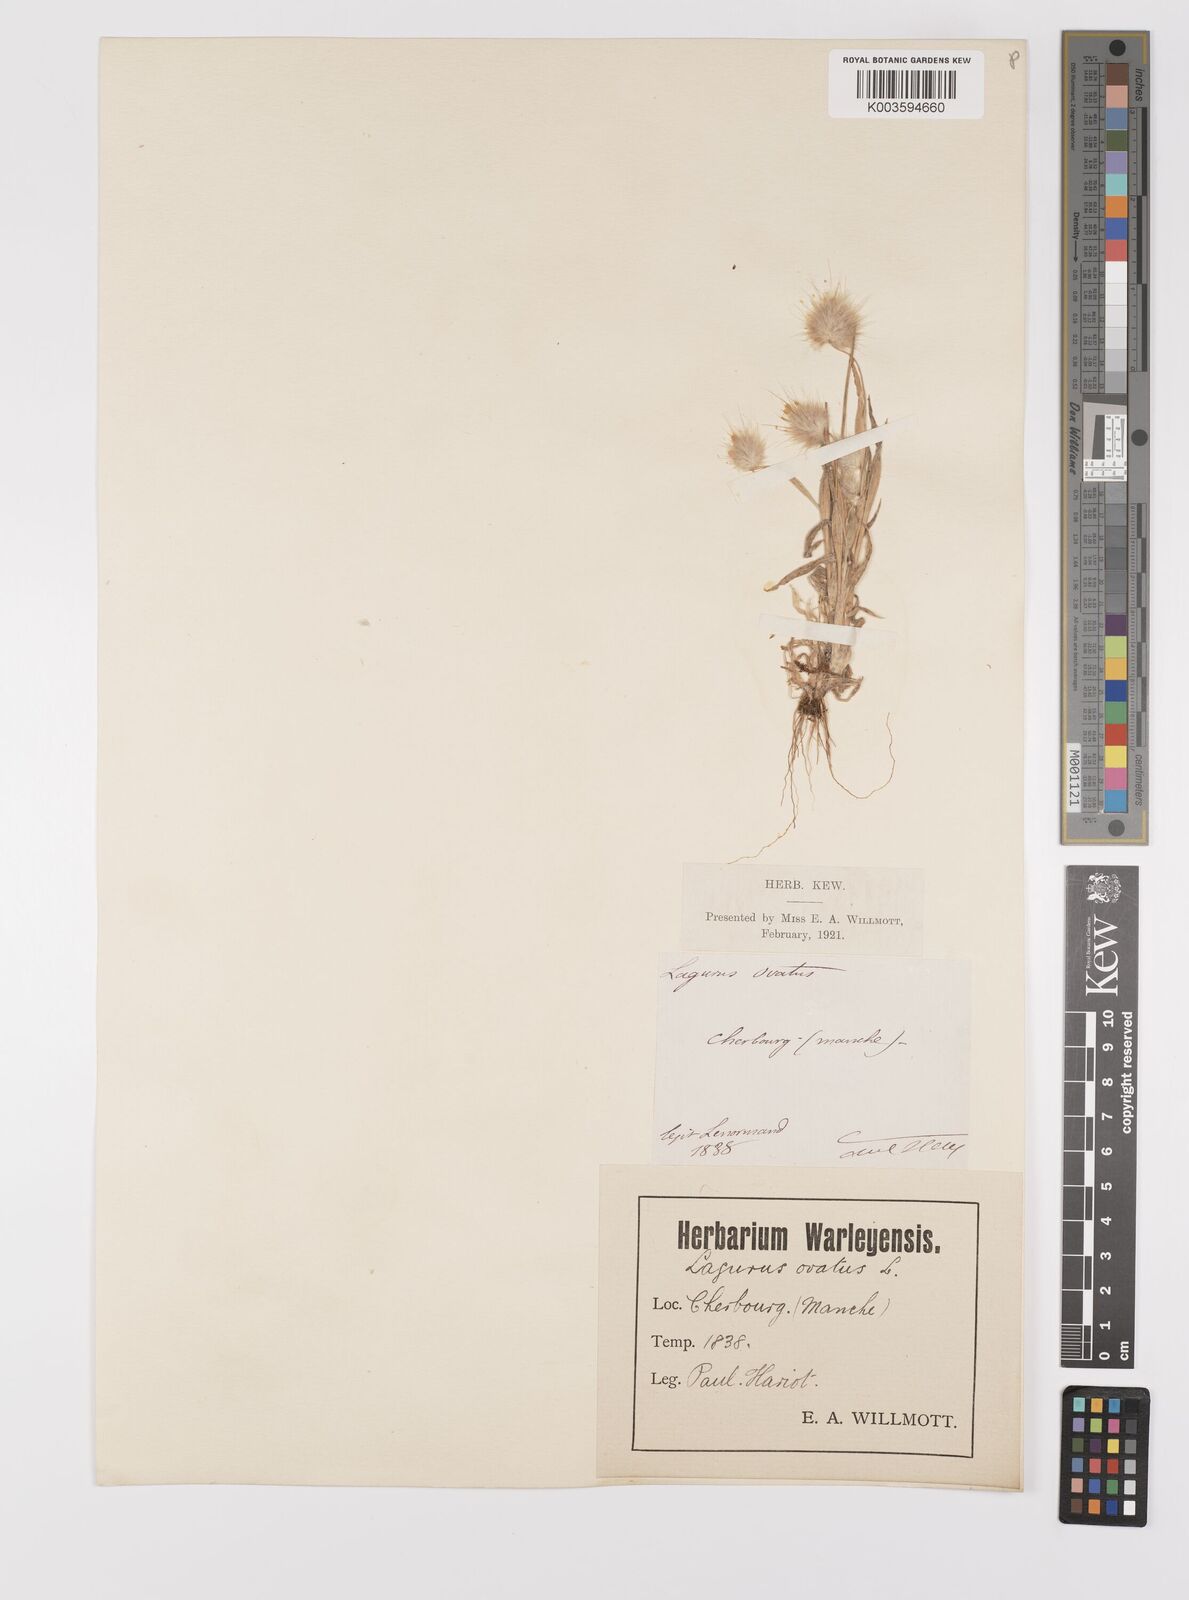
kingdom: Plantae
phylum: Tracheophyta
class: Liliopsida
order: Poales
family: Poaceae
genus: Lagurus
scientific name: Lagurus ovatus
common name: Hare's-tail
